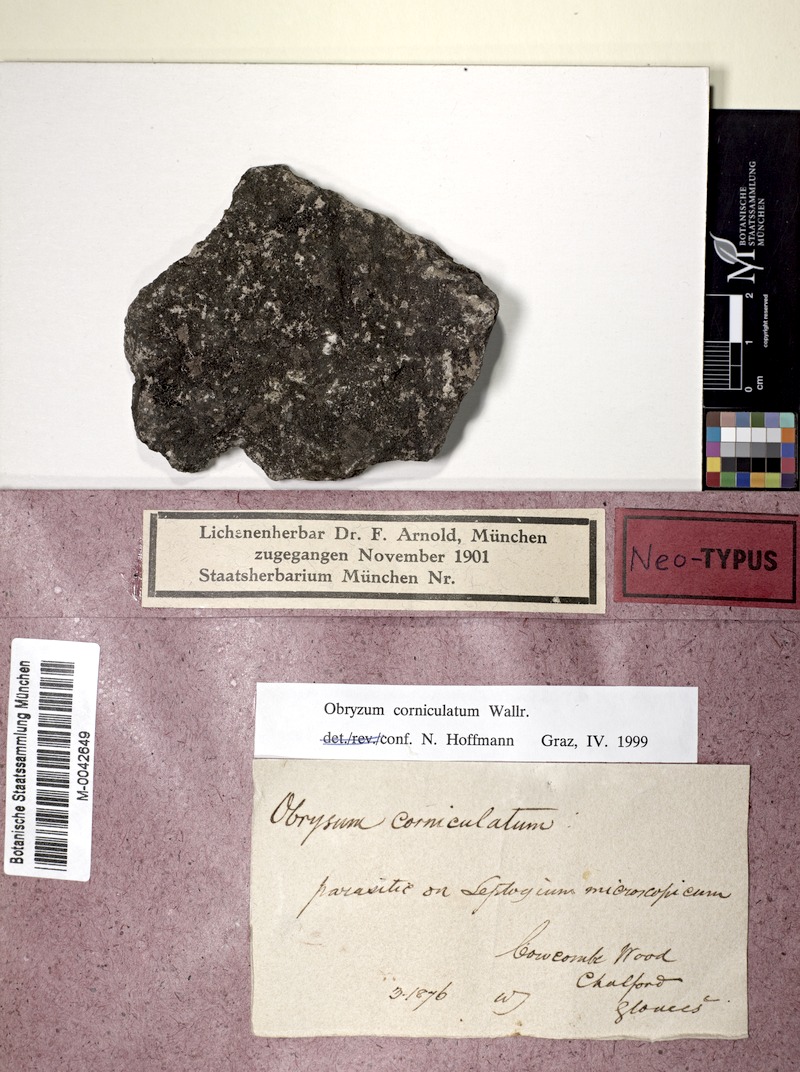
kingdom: Fungi
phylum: Ascomycota
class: Sordariomycetes
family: Obryzaceae
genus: Obryzum
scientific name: Obryzum corniculatum
